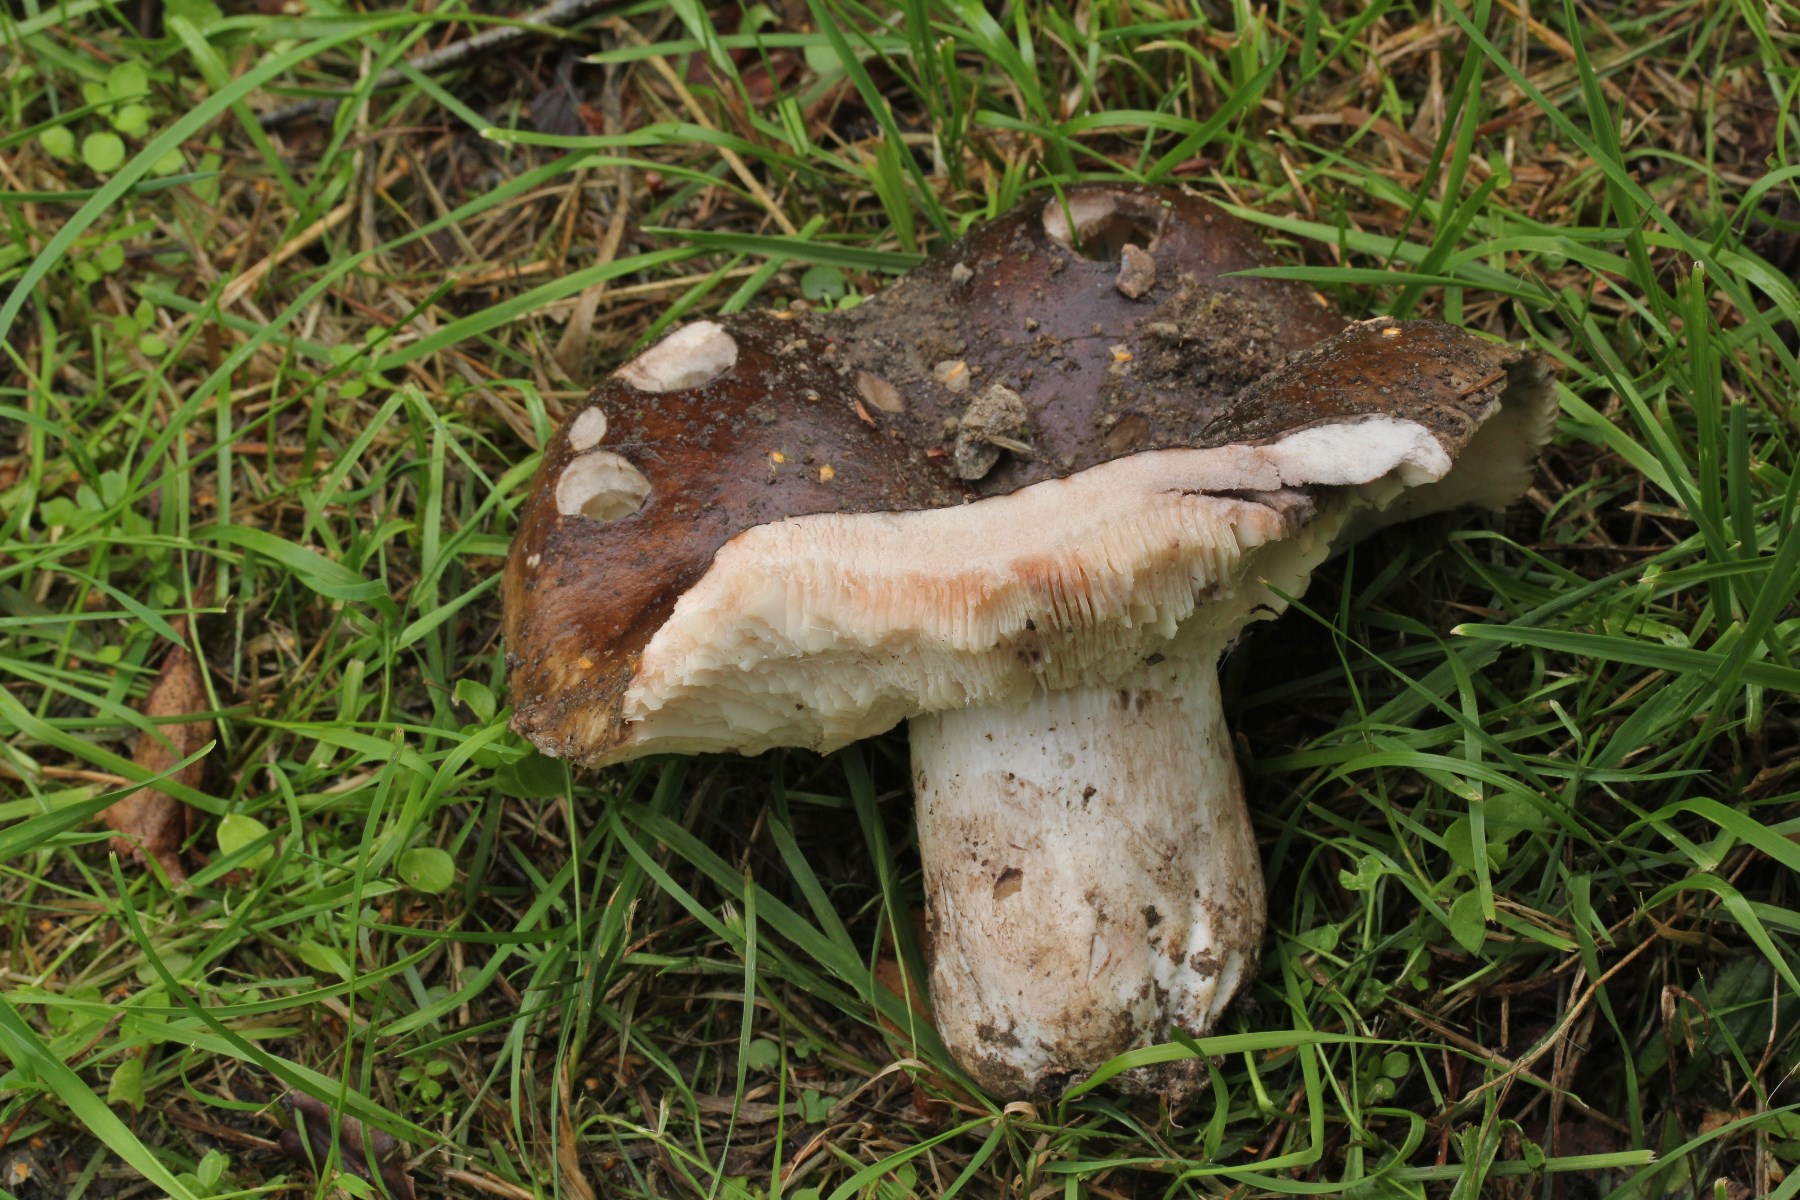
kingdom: Fungi
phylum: Basidiomycota
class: Agaricomycetes
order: Russulales
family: Russulaceae
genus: Russula
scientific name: Russula densifolia
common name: tætbladet skørhat
